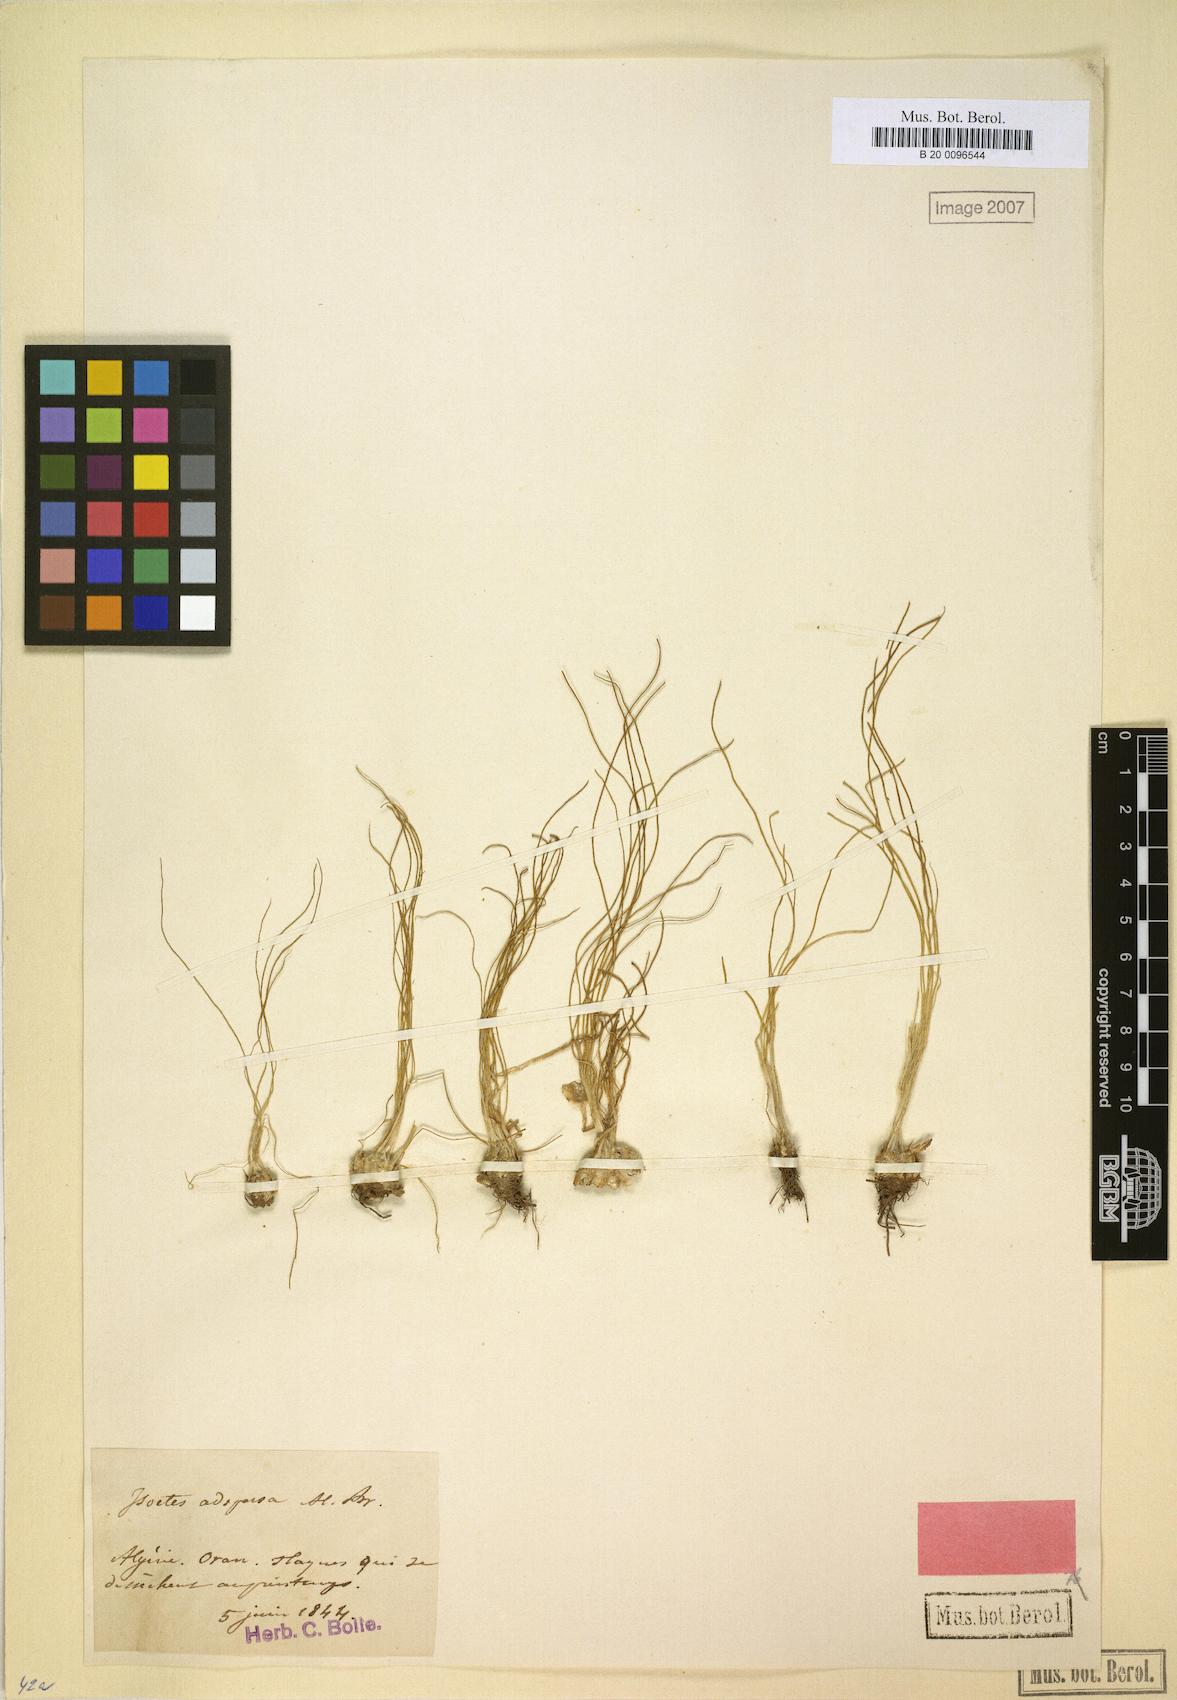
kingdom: Plantae
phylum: Tracheophyta
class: Lycopodiopsida
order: Isoetales
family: Isoetaceae
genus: Isoetes
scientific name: Isoetes longissima
